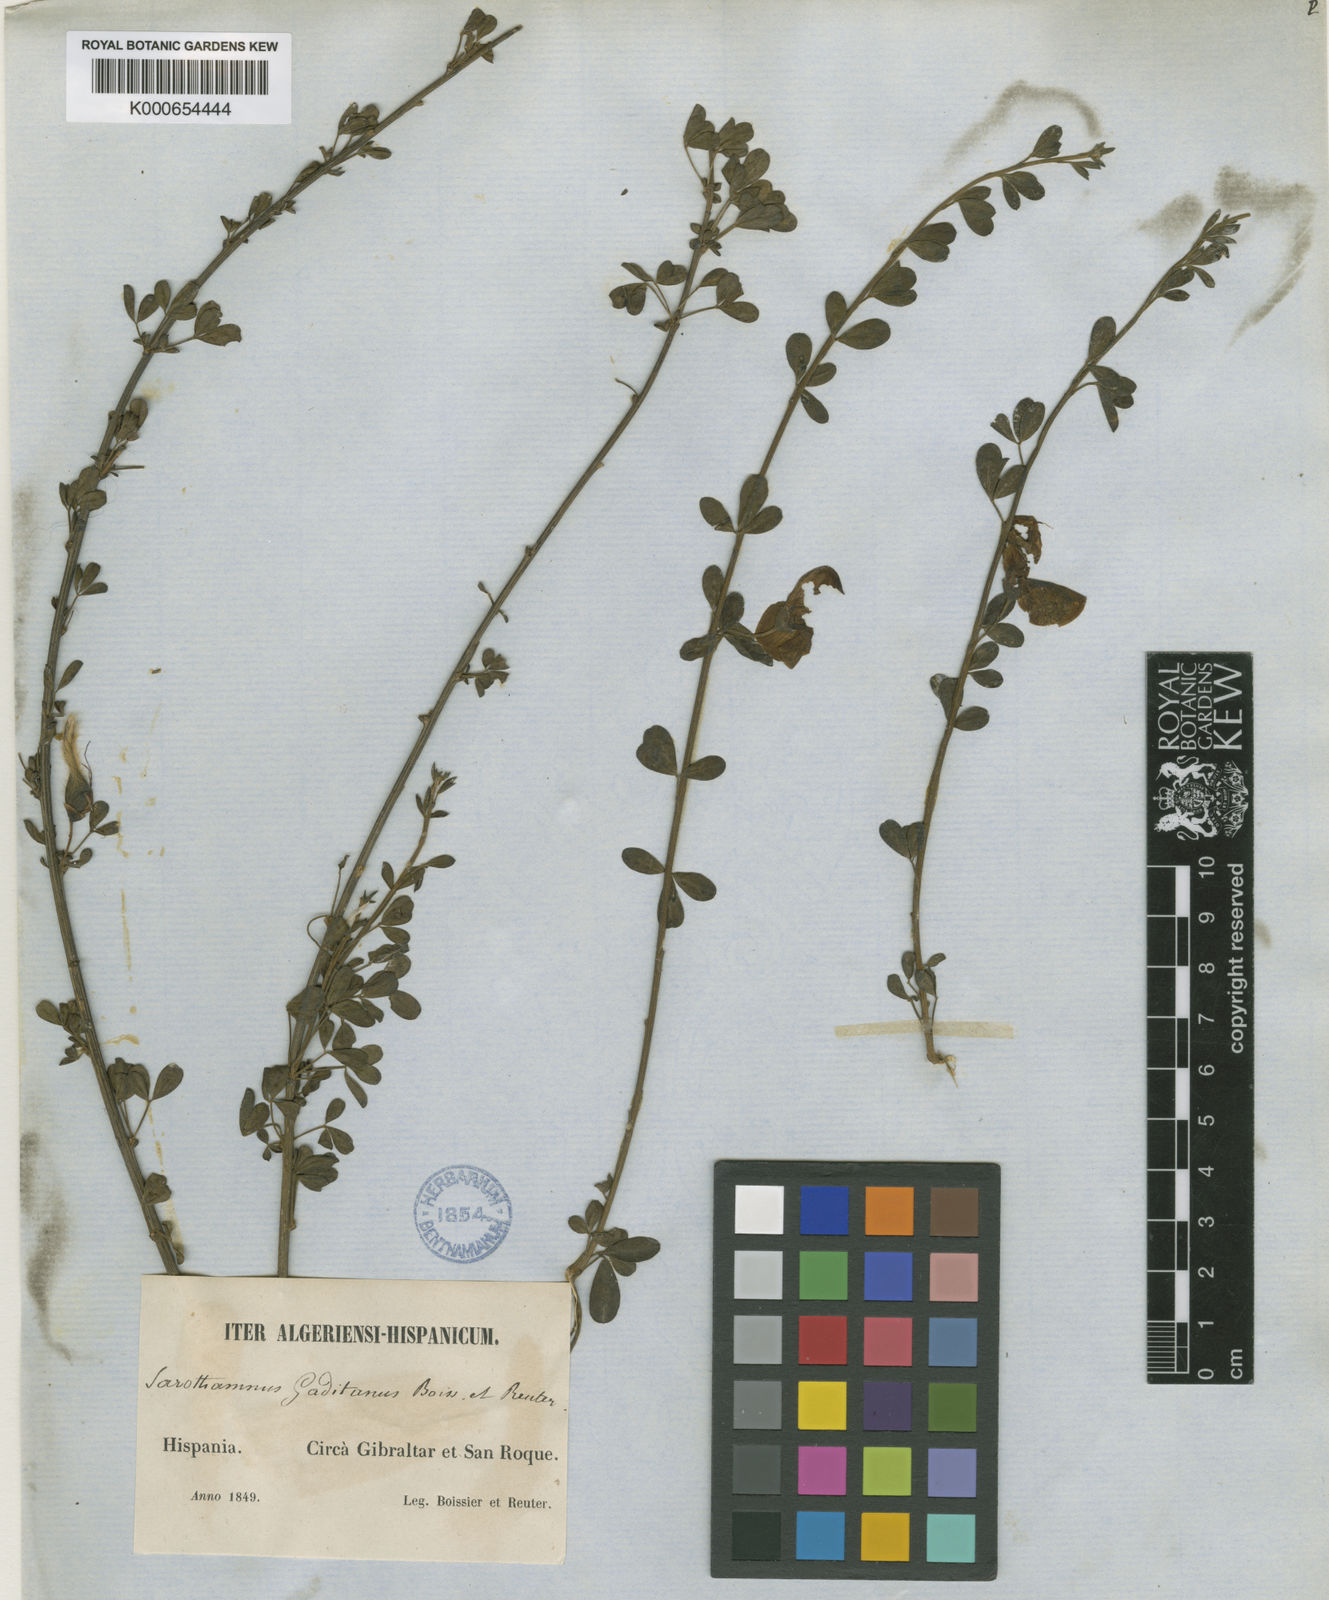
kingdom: Plantae
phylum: Tracheophyta
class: Magnoliopsida
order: Fabales
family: Fabaceae
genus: Cytisus
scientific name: Cytisus arboreus
